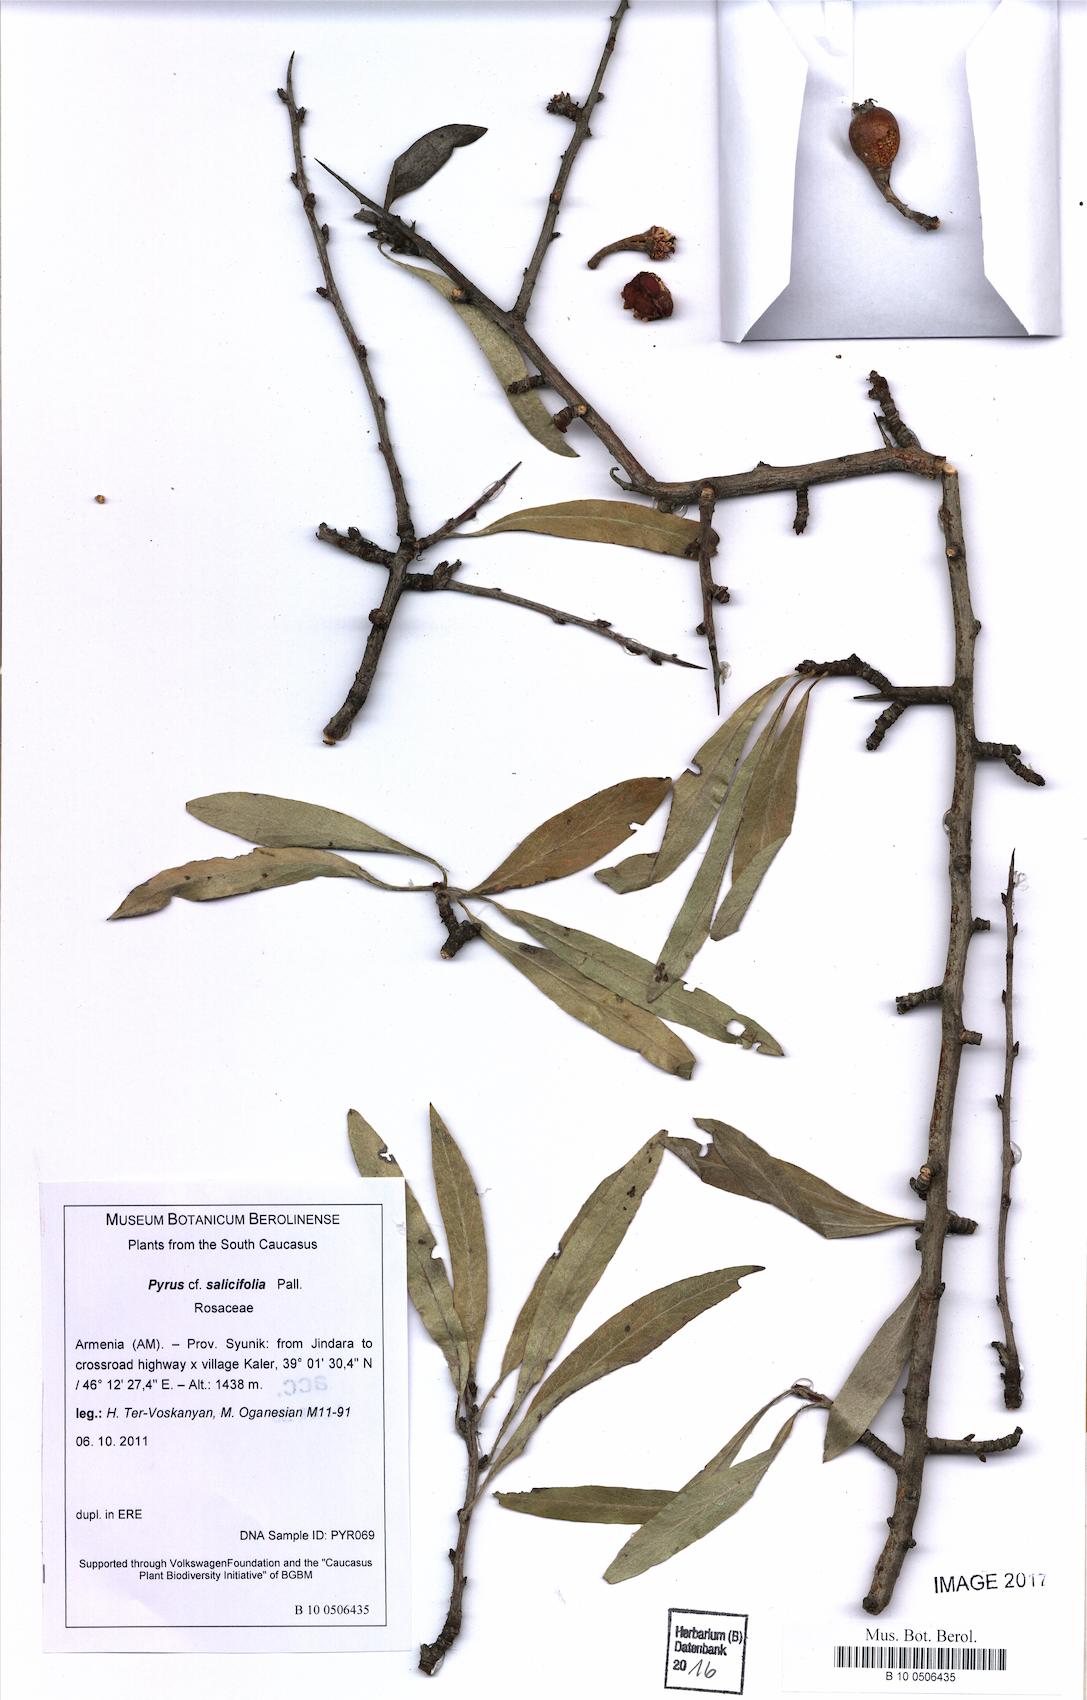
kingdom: Plantae
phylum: Tracheophyta
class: Magnoliopsida
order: Rosales
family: Rosaceae
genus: Pyrus
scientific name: Pyrus salicifolia
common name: Willow-leaved pear
